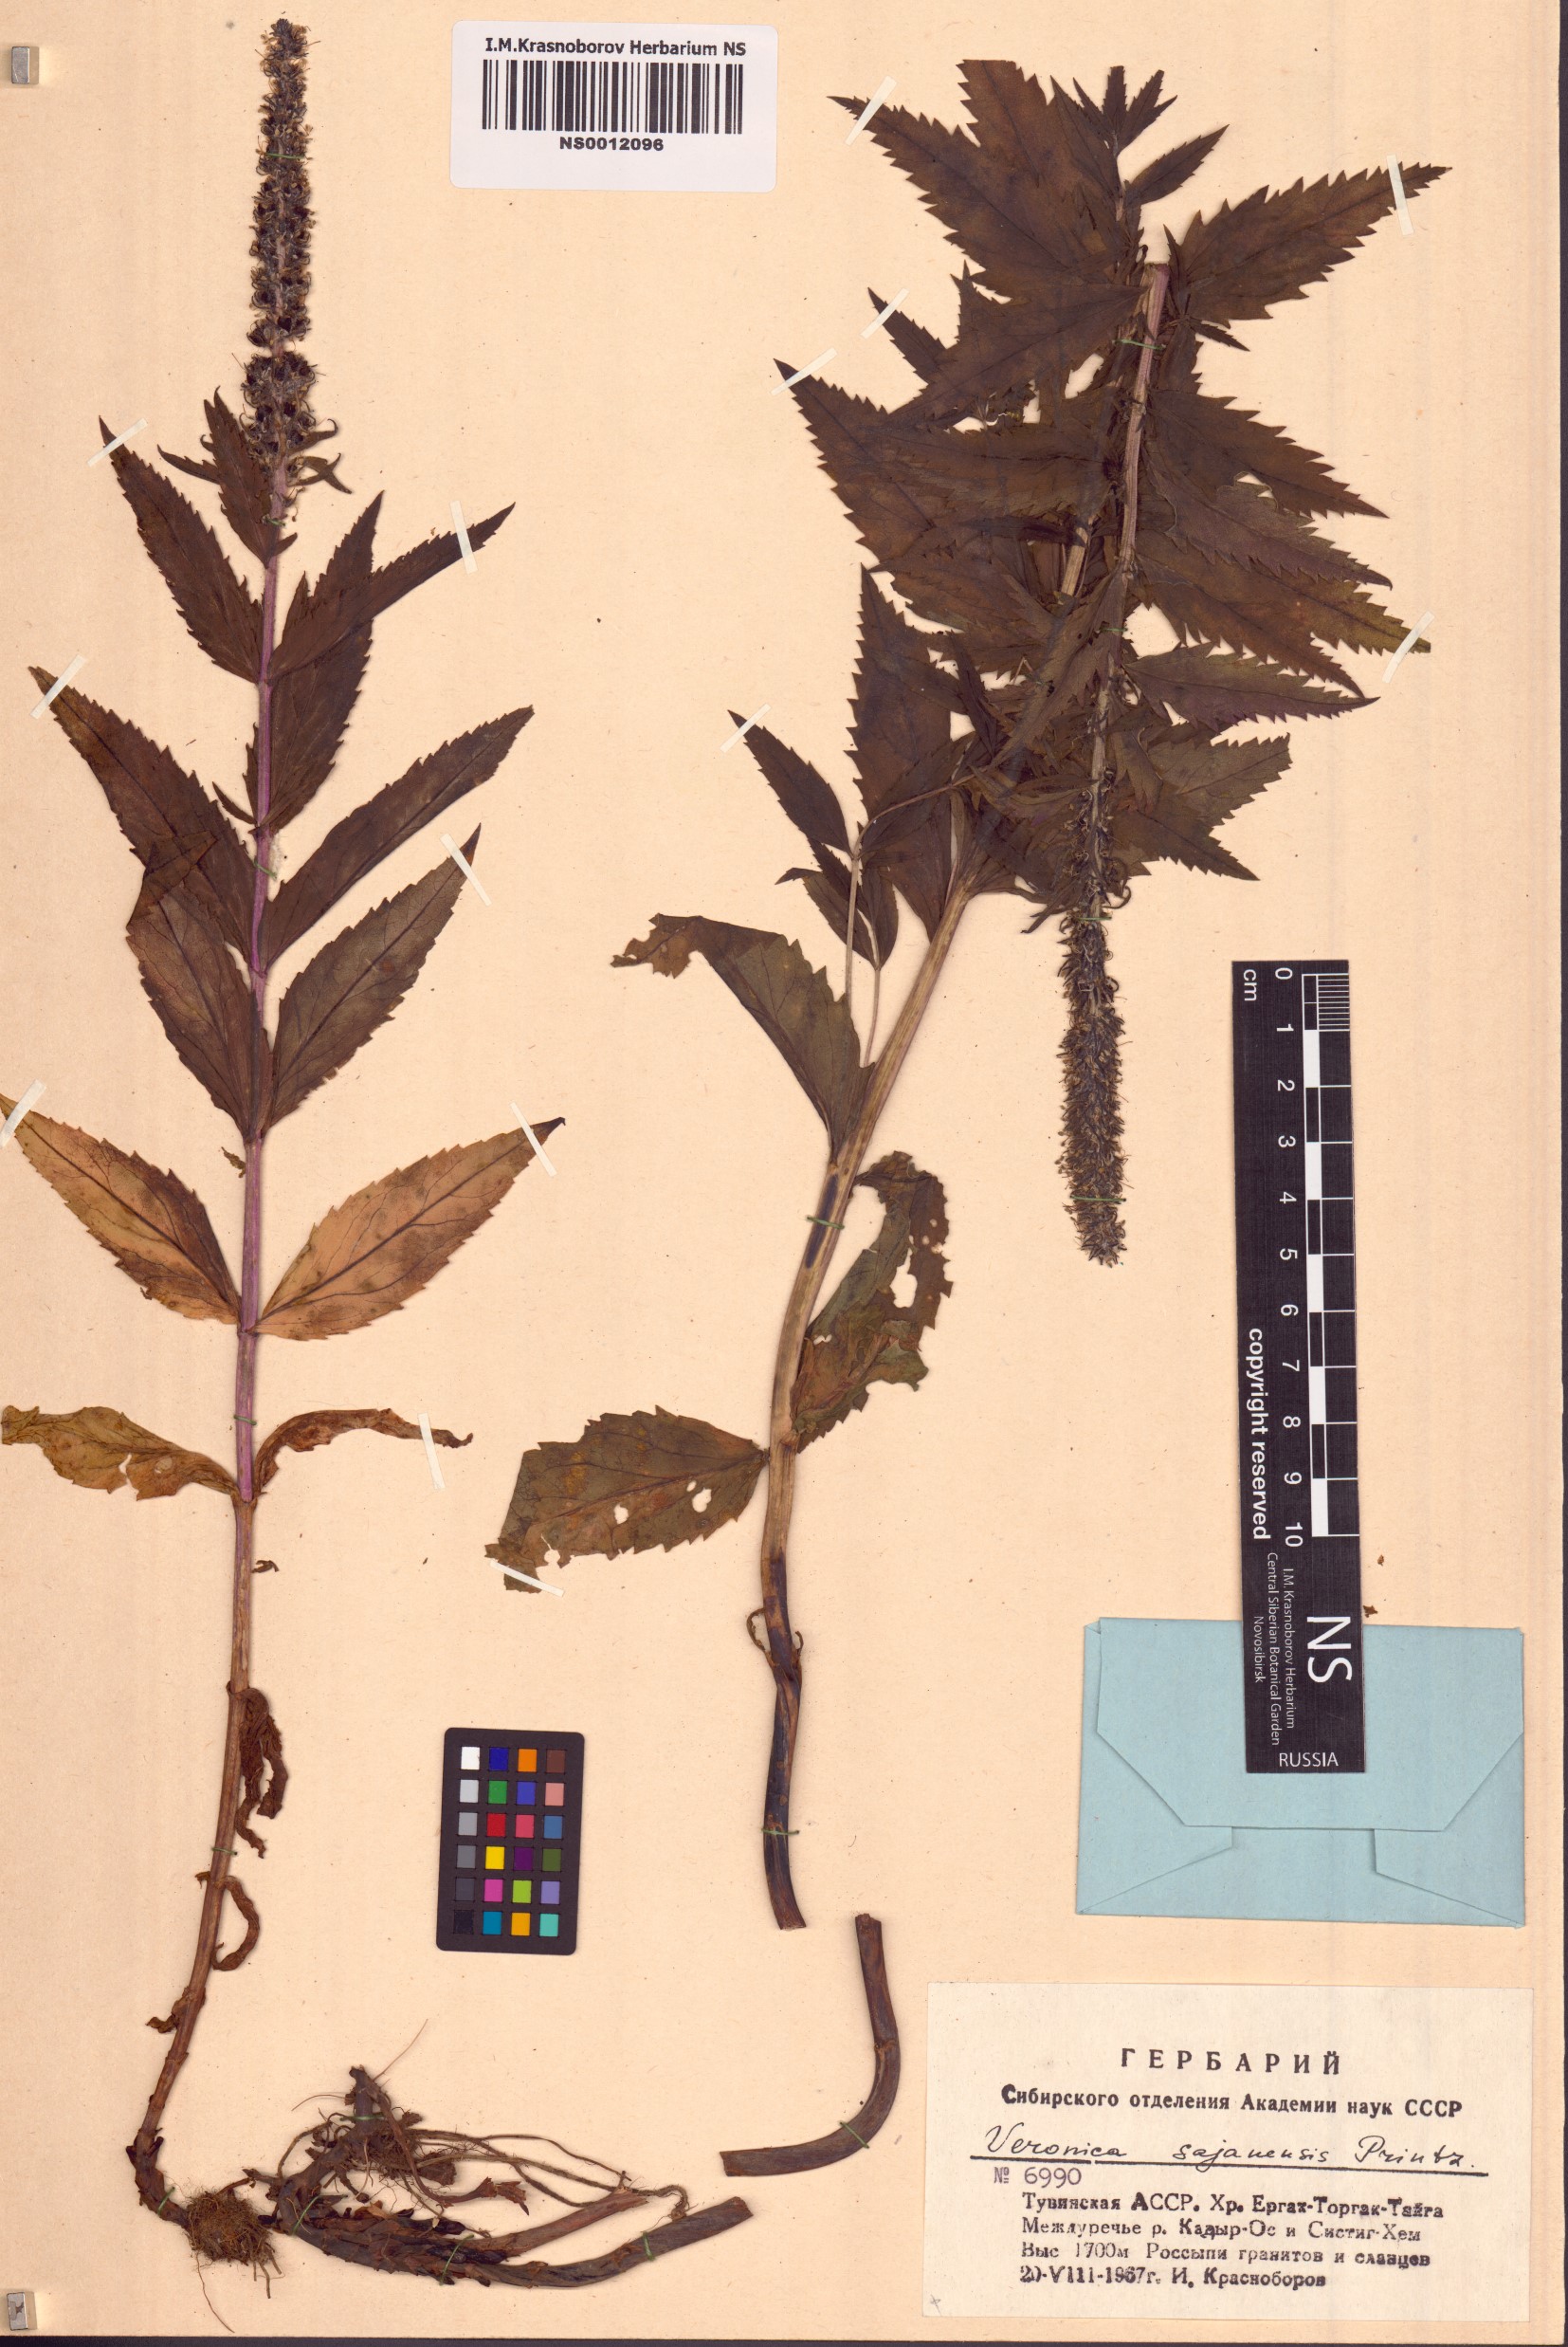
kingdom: Plantae
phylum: Tracheophyta
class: Magnoliopsida
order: Lamiales
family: Plantaginaceae
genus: Veronica
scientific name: Veronica sajanensis
